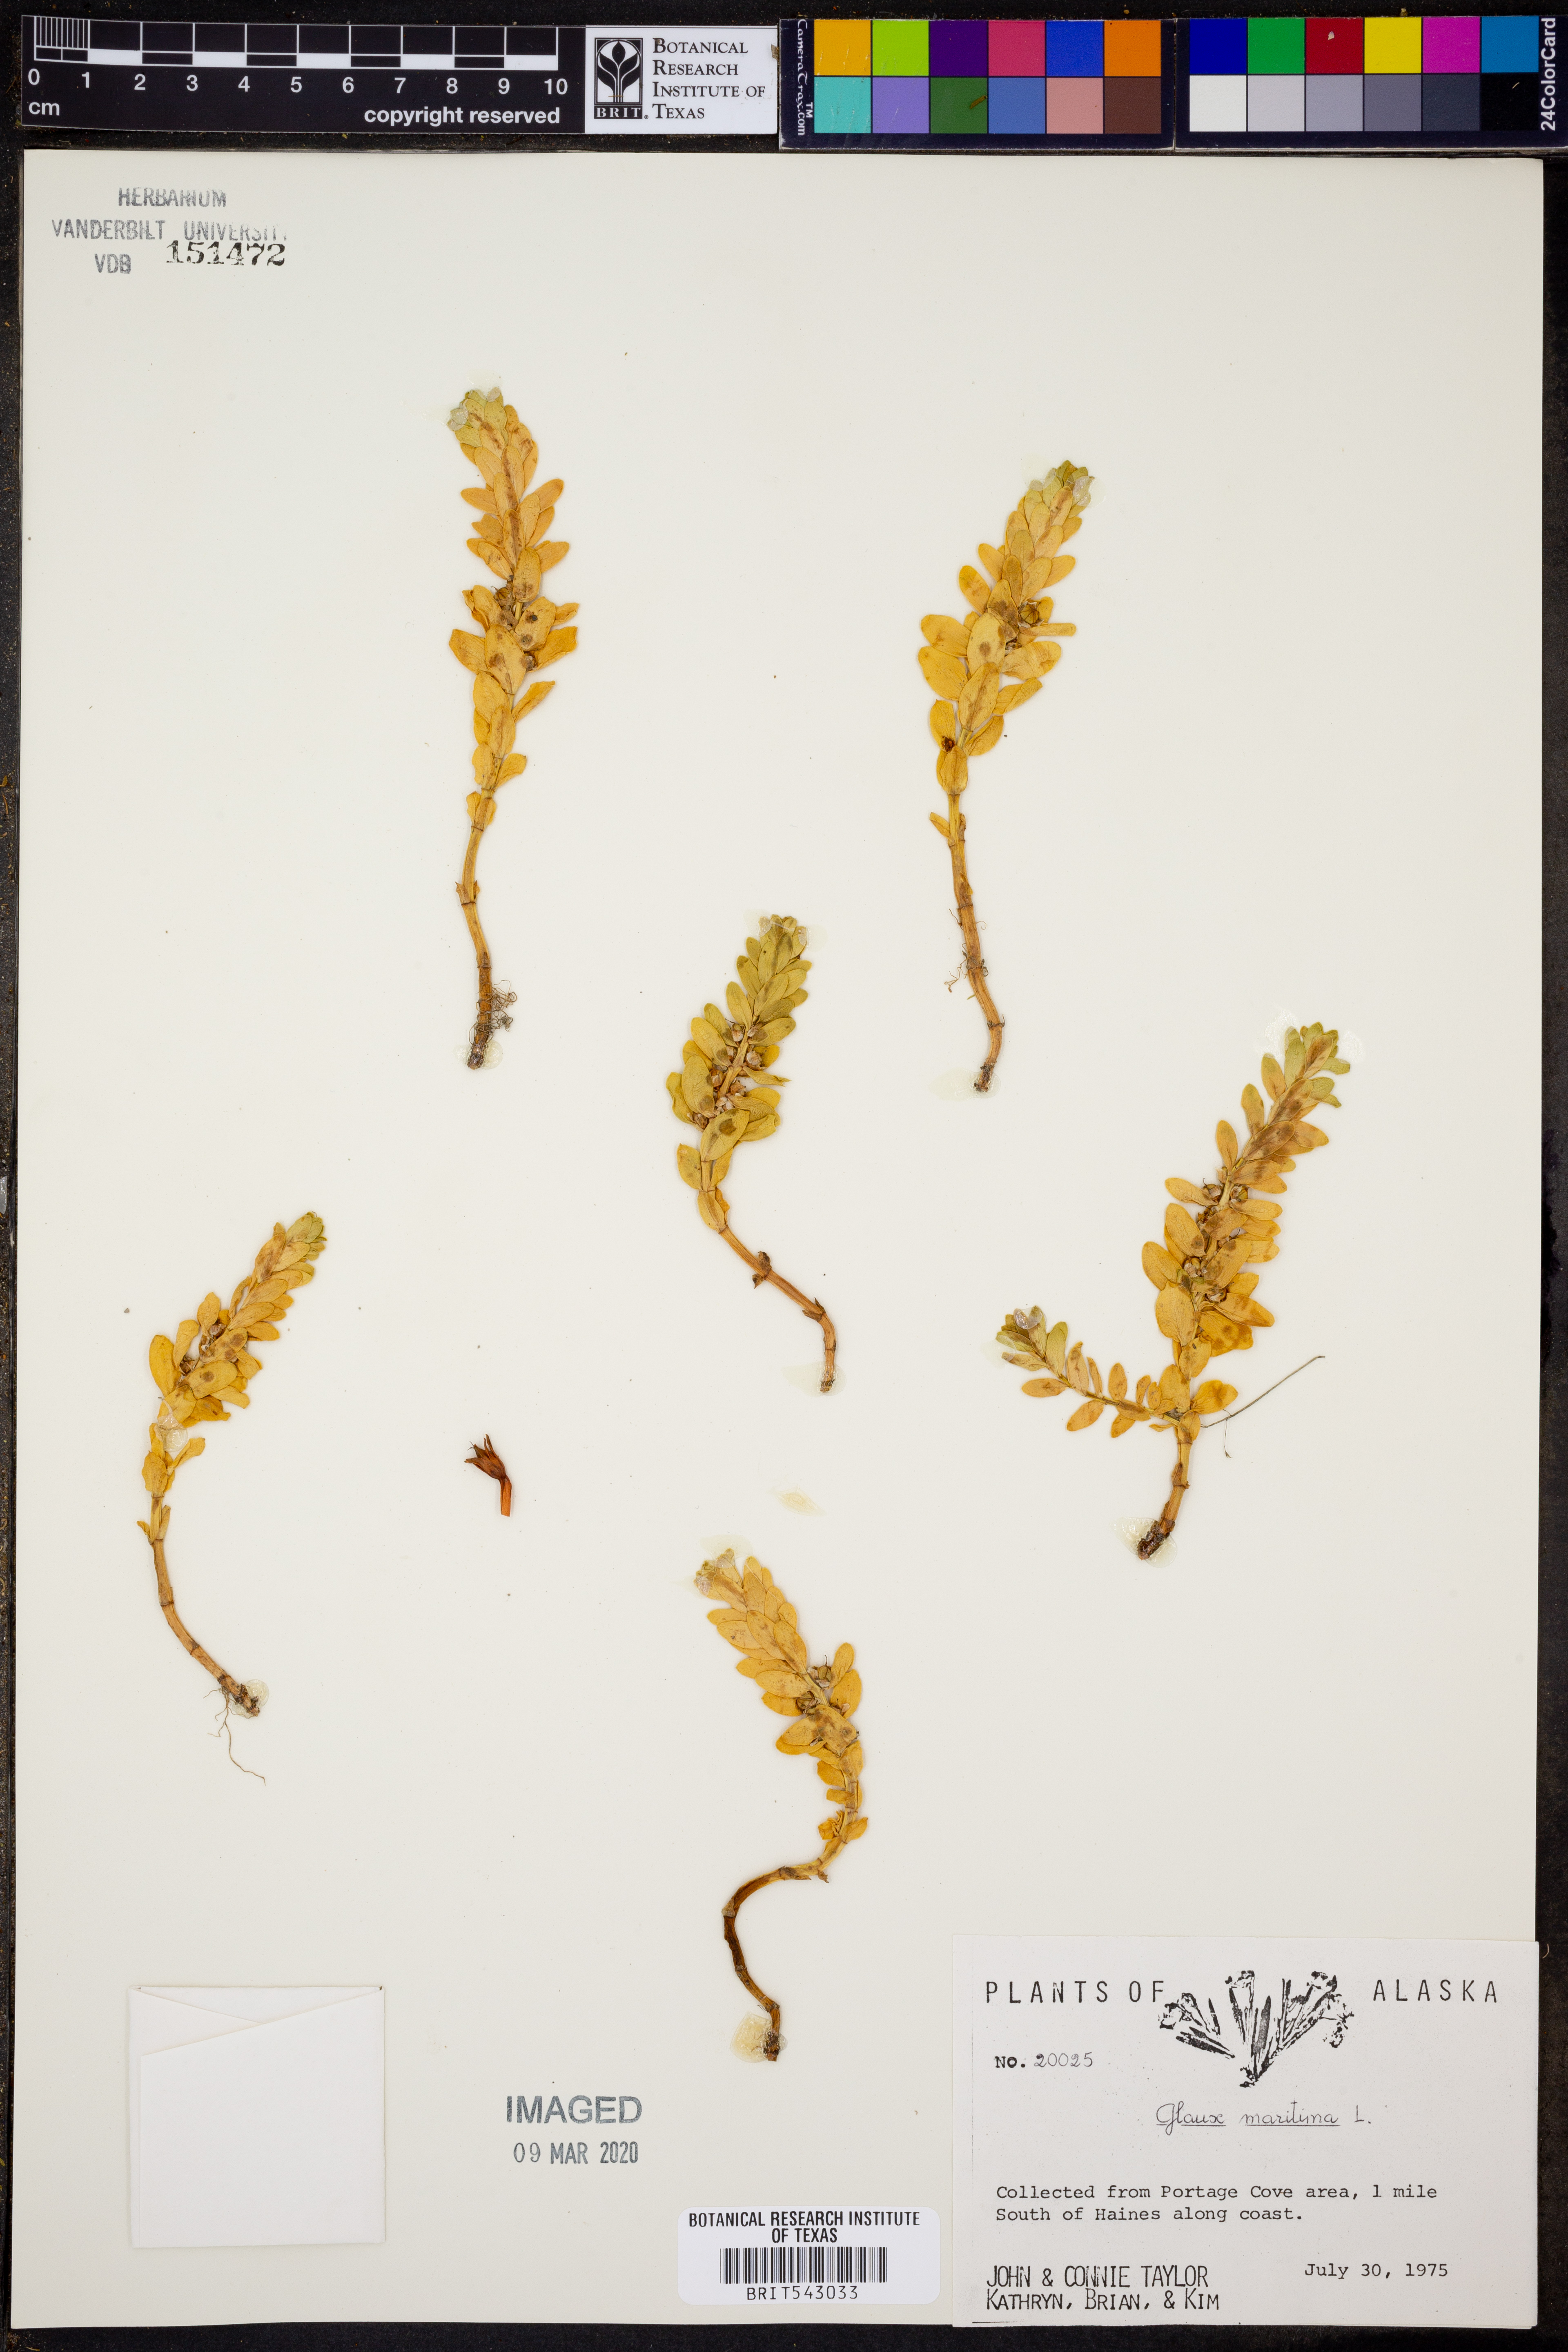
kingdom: Plantae
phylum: Tracheophyta
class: Magnoliopsida
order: Ericales
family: Primulaceae
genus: Lysimachia
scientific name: Lysimachia maritima
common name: Sea milkwort
